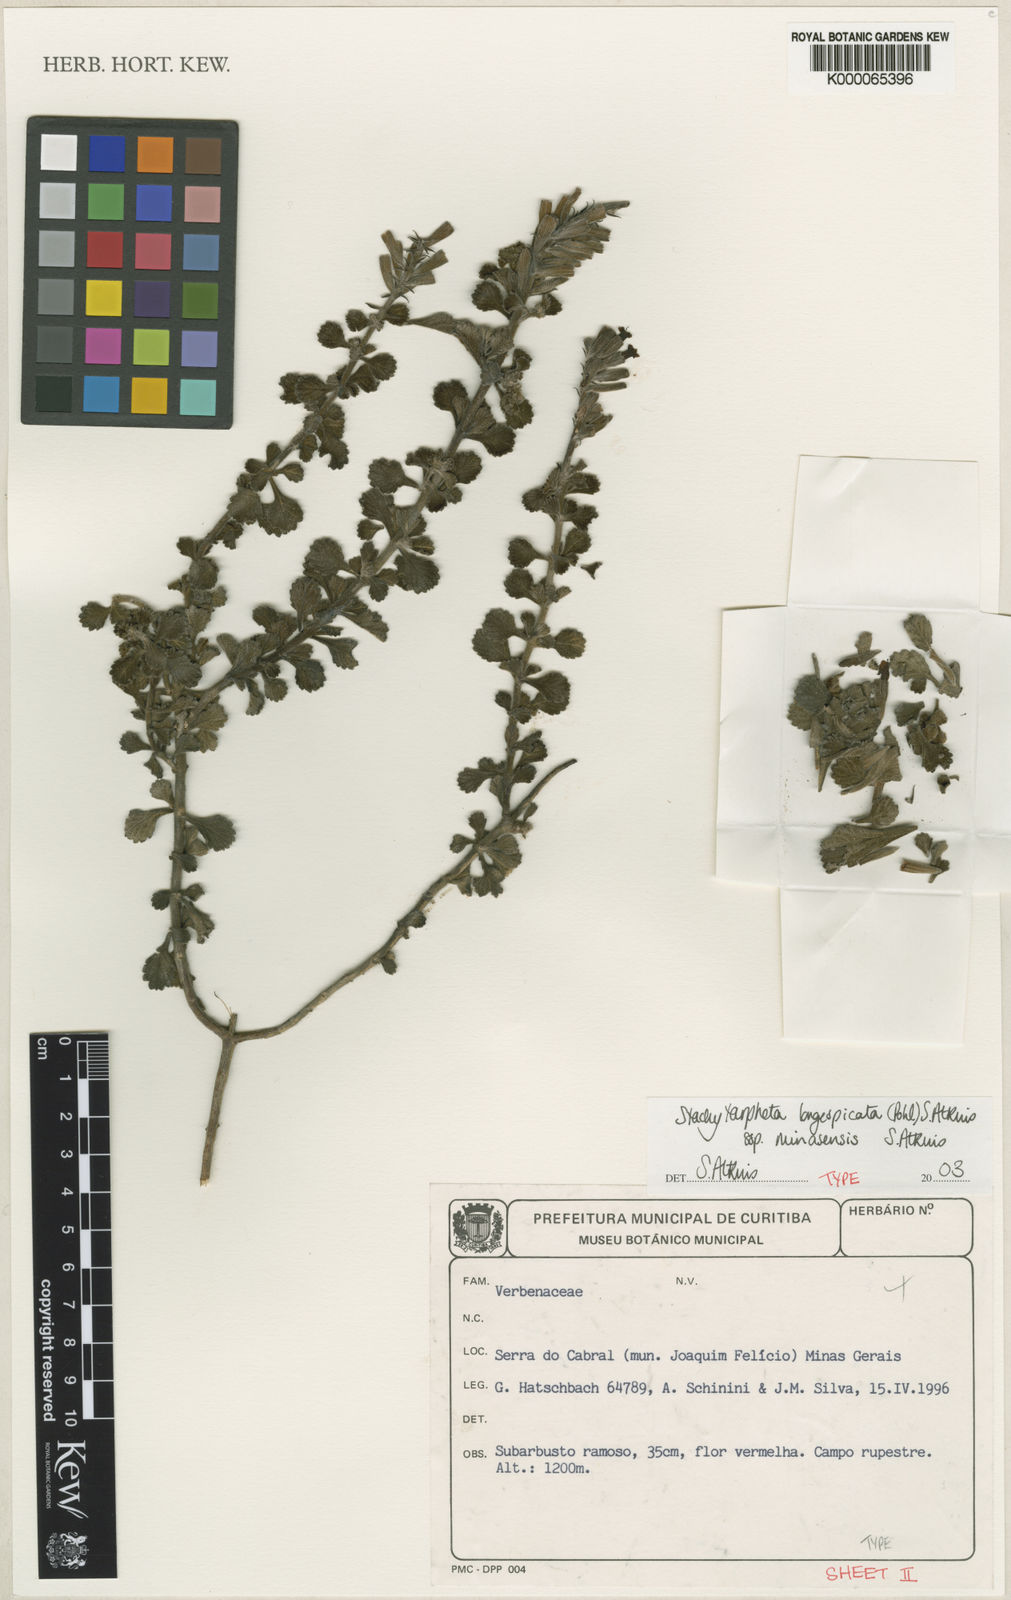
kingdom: Plantae
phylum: Tracheophyta
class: Magnoliopsida
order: Lamiales
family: Verbenaceae
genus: Stachytarpheta
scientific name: Stachytarpheta longispicata
